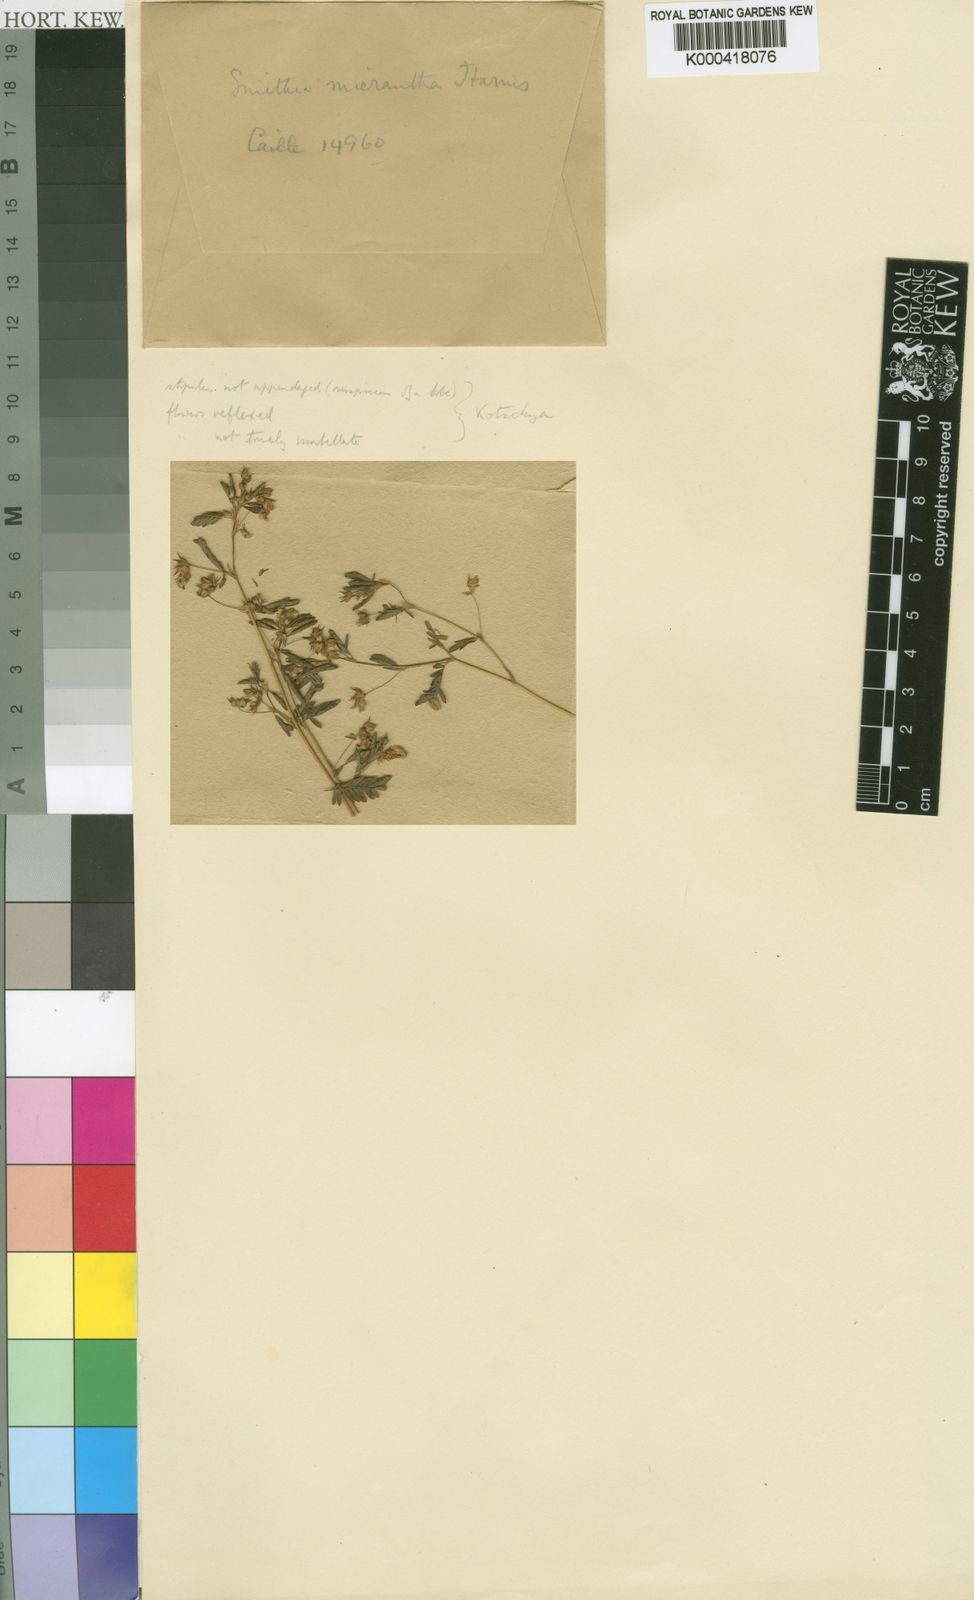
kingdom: Plantae
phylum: Tracheophyta
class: Magnoliopsida
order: Fabales
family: Fabaceae
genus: Kotschya
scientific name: Kotschya micrantha
